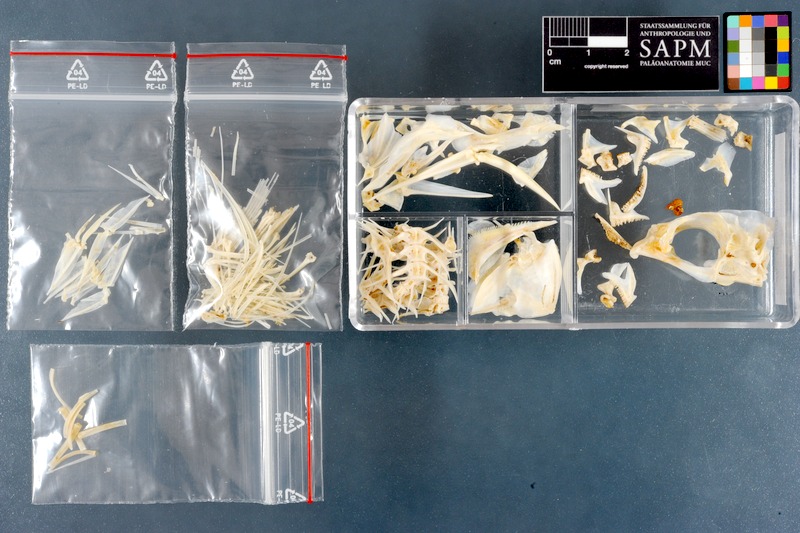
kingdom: Animalia
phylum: Chordata
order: Perciformes
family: Haemulidae
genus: Plectorhinchus
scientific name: Plectorhinchus schotaf
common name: Minstrel sweetlips
